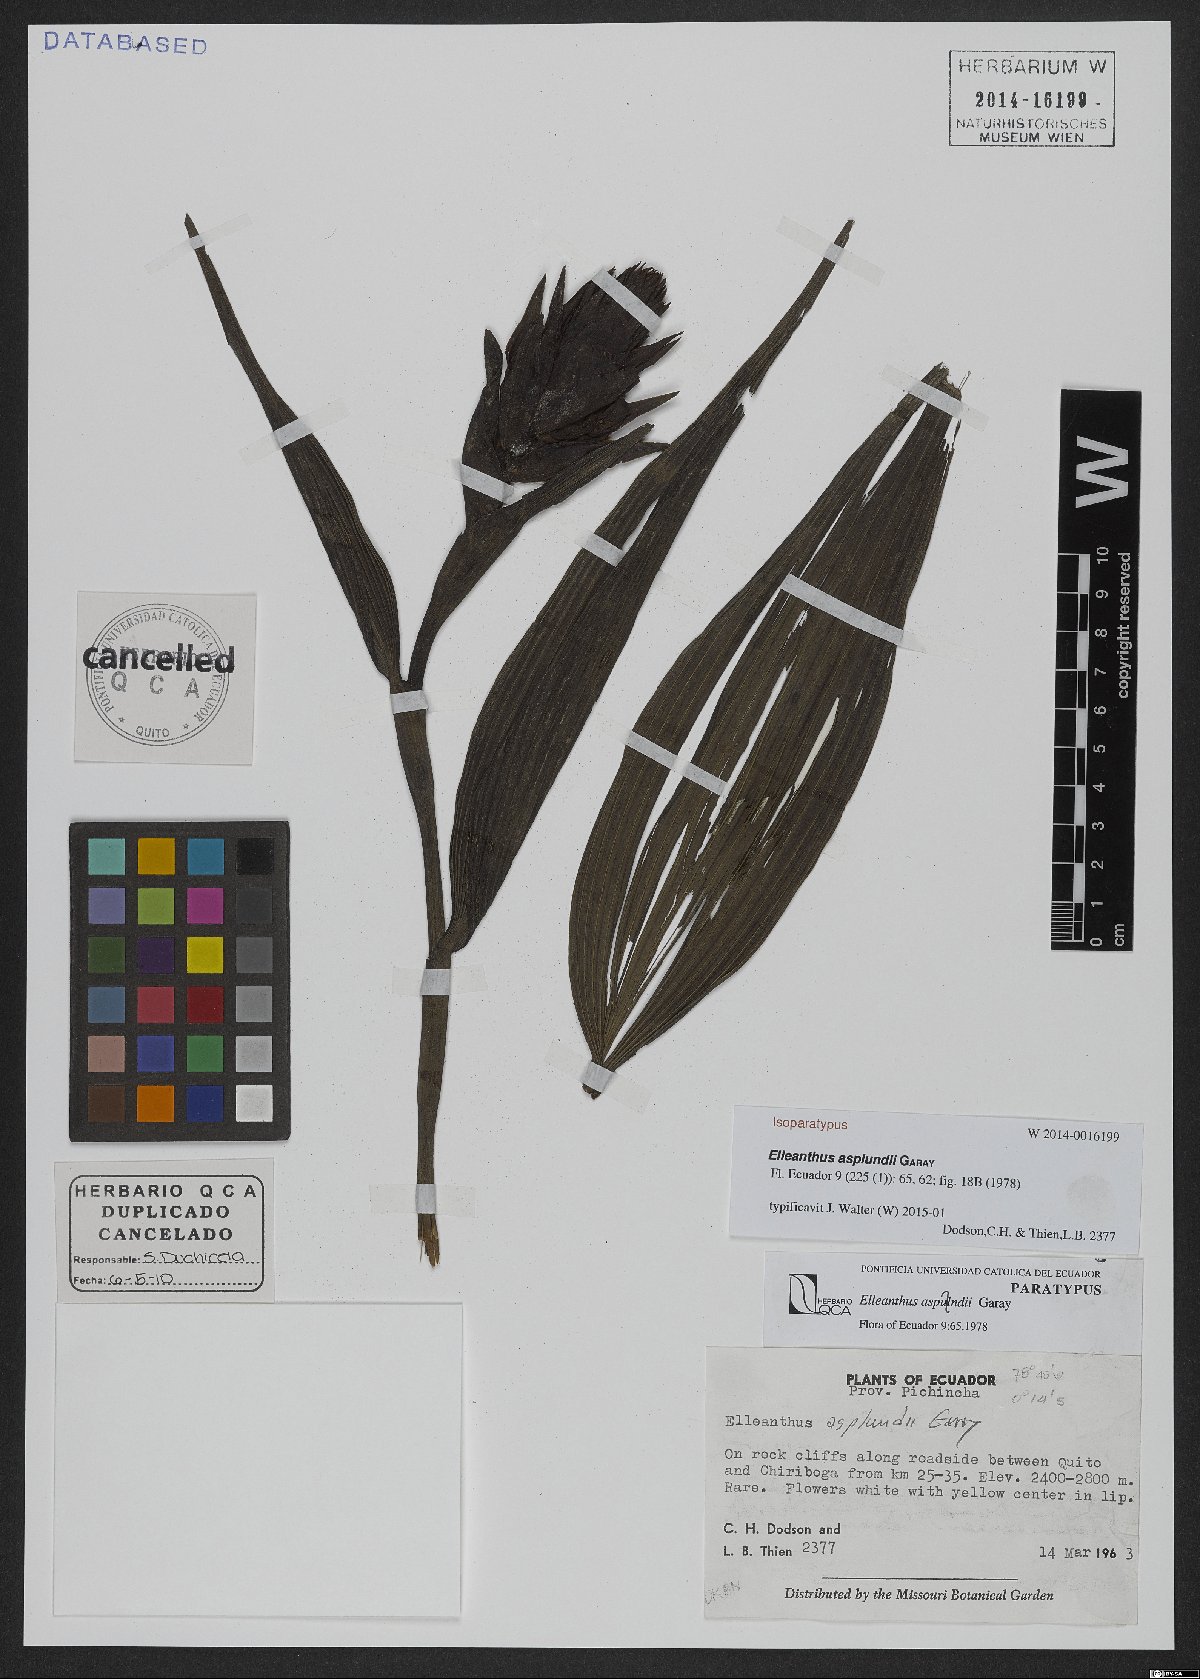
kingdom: Plantae
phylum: Tracheophyta
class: Liliopsida
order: Asparagales
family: Orchidaceae
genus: Elleanthus
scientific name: Elleanthus asplundii
